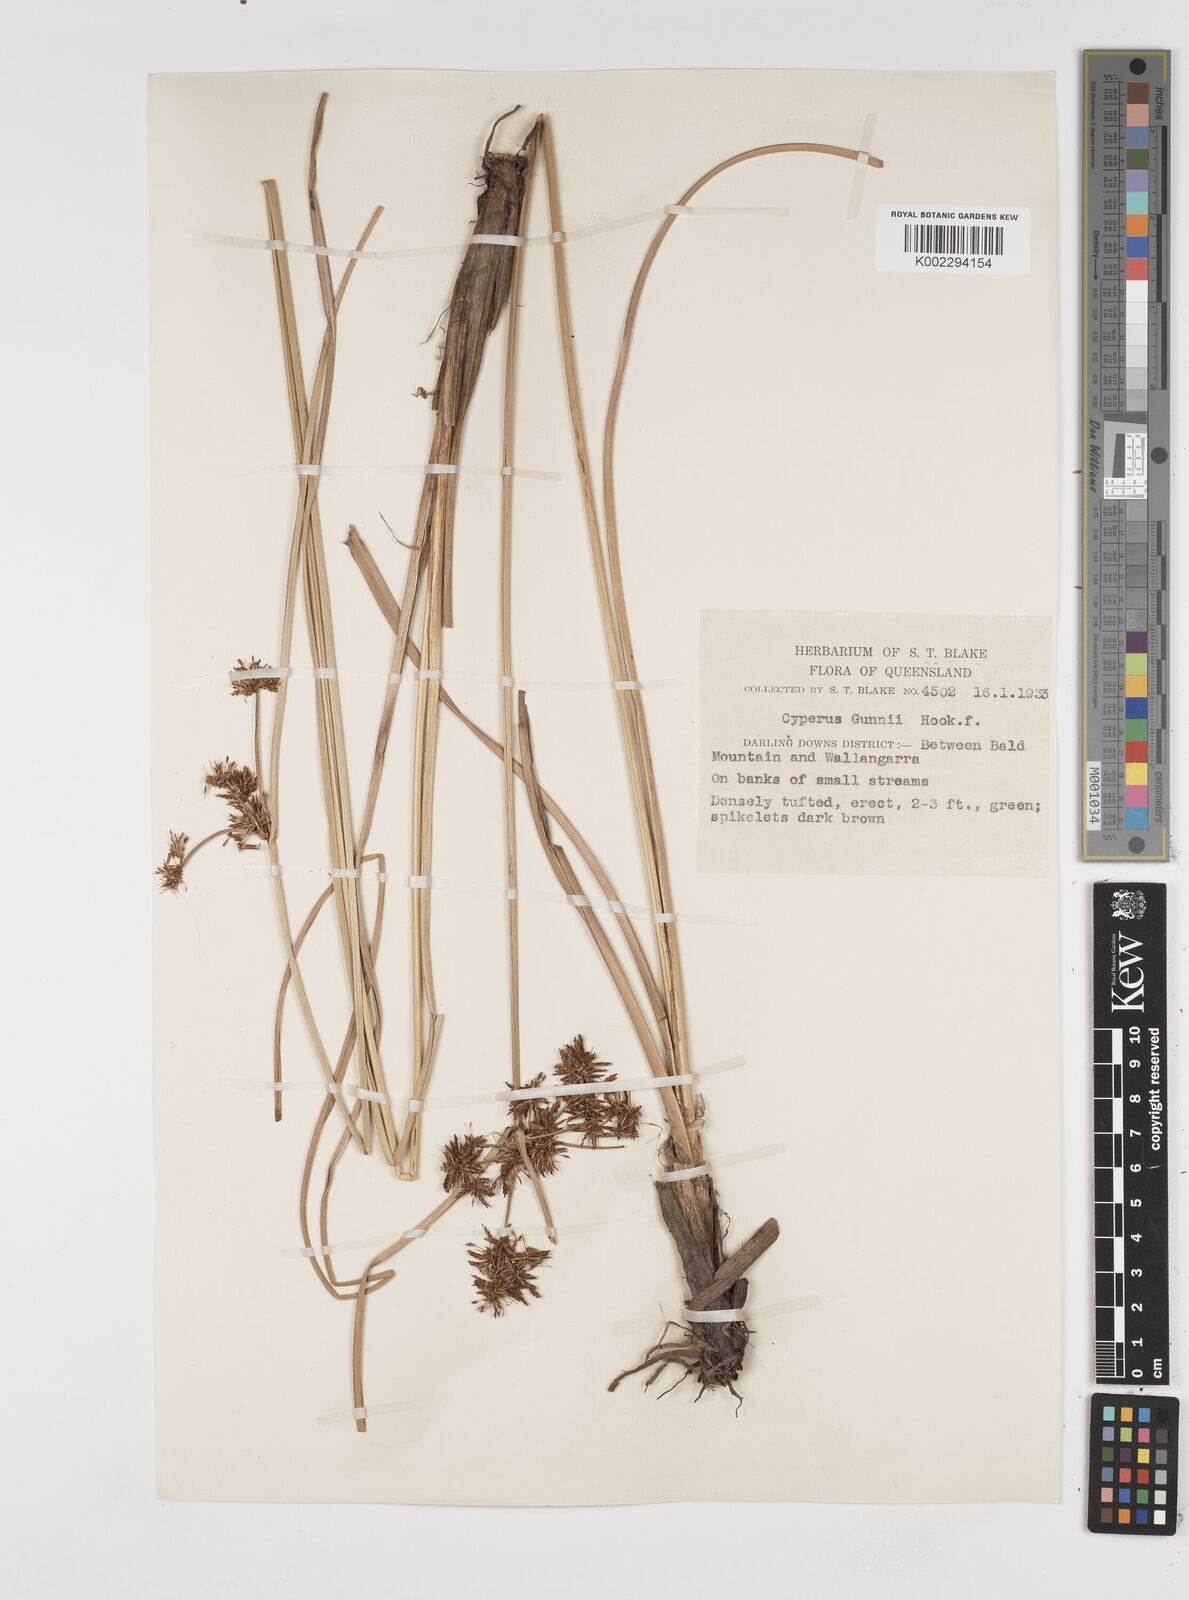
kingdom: Plantae
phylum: Tracheophyta
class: Liliopsida
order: Poales
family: Cyperaceae
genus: Cyperus
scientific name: Cyperus gunnii
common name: Flecked flat-sedge
